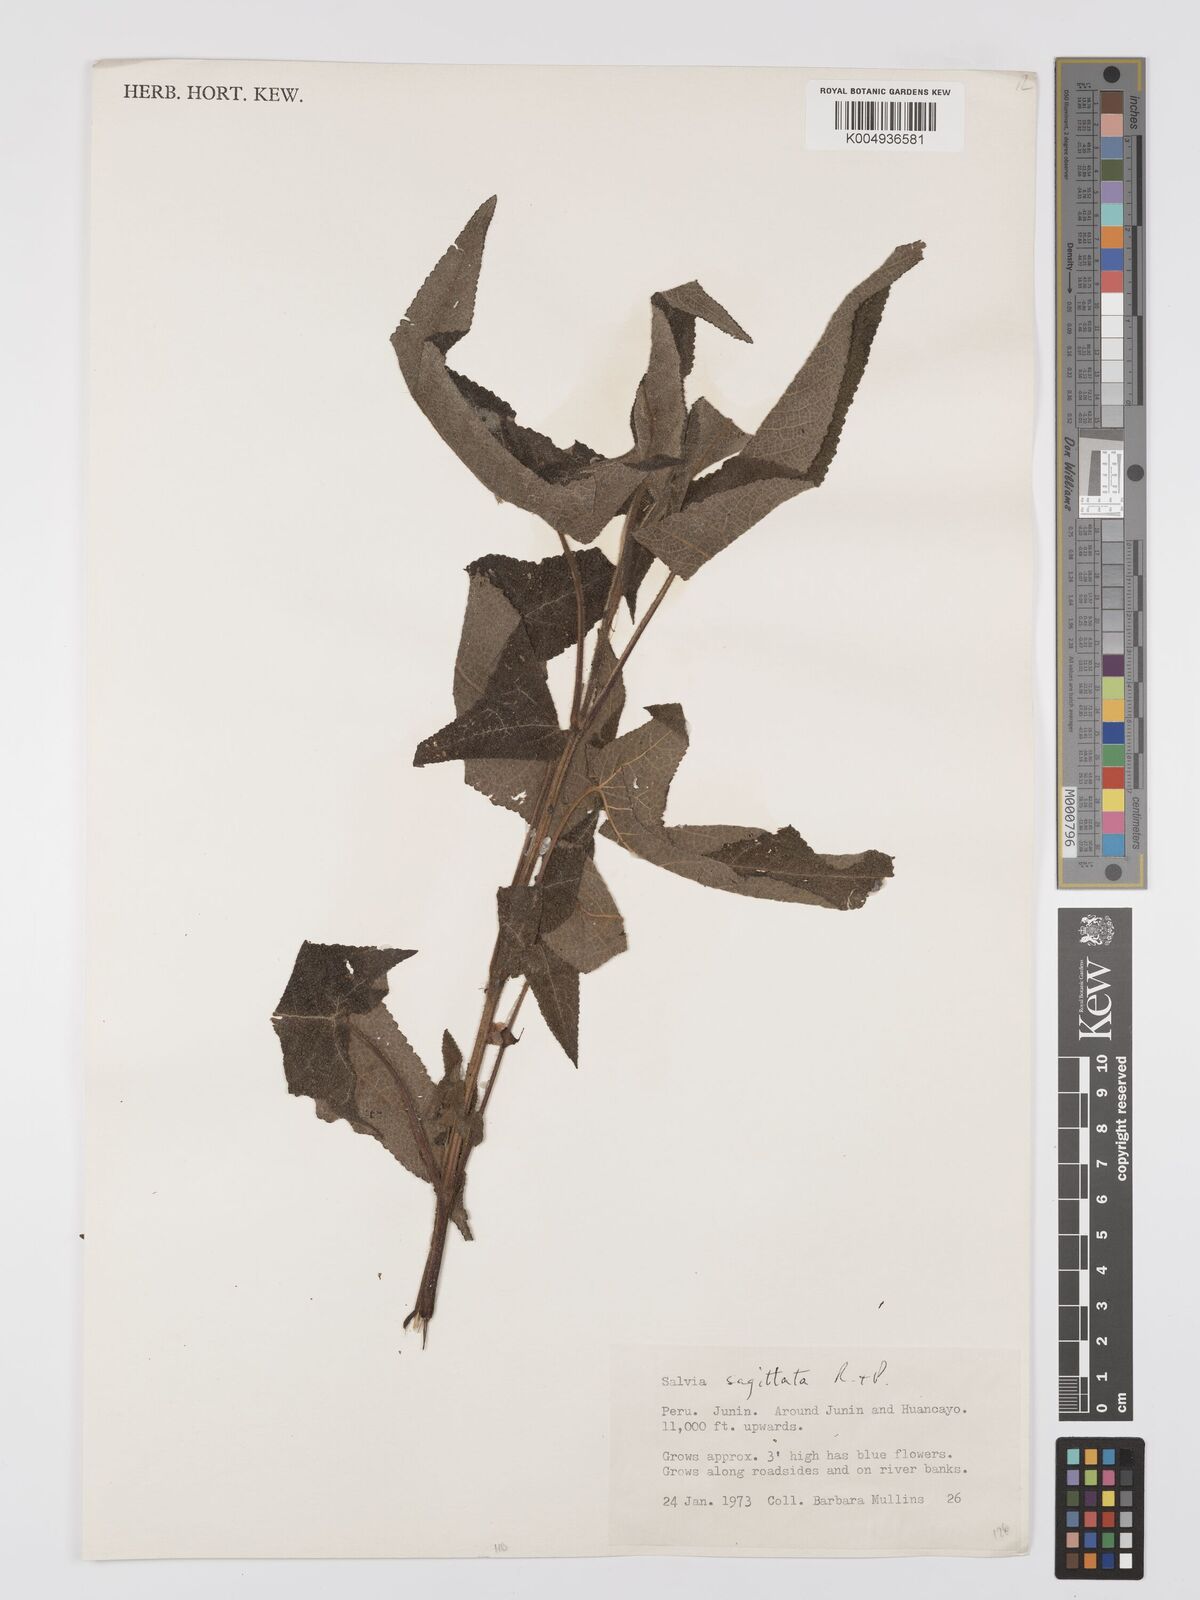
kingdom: Plantae
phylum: Tracheophyta
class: Magnoliopsida
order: Lamiales
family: Lamiaceae
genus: Salvia
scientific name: Salvia sagittata
